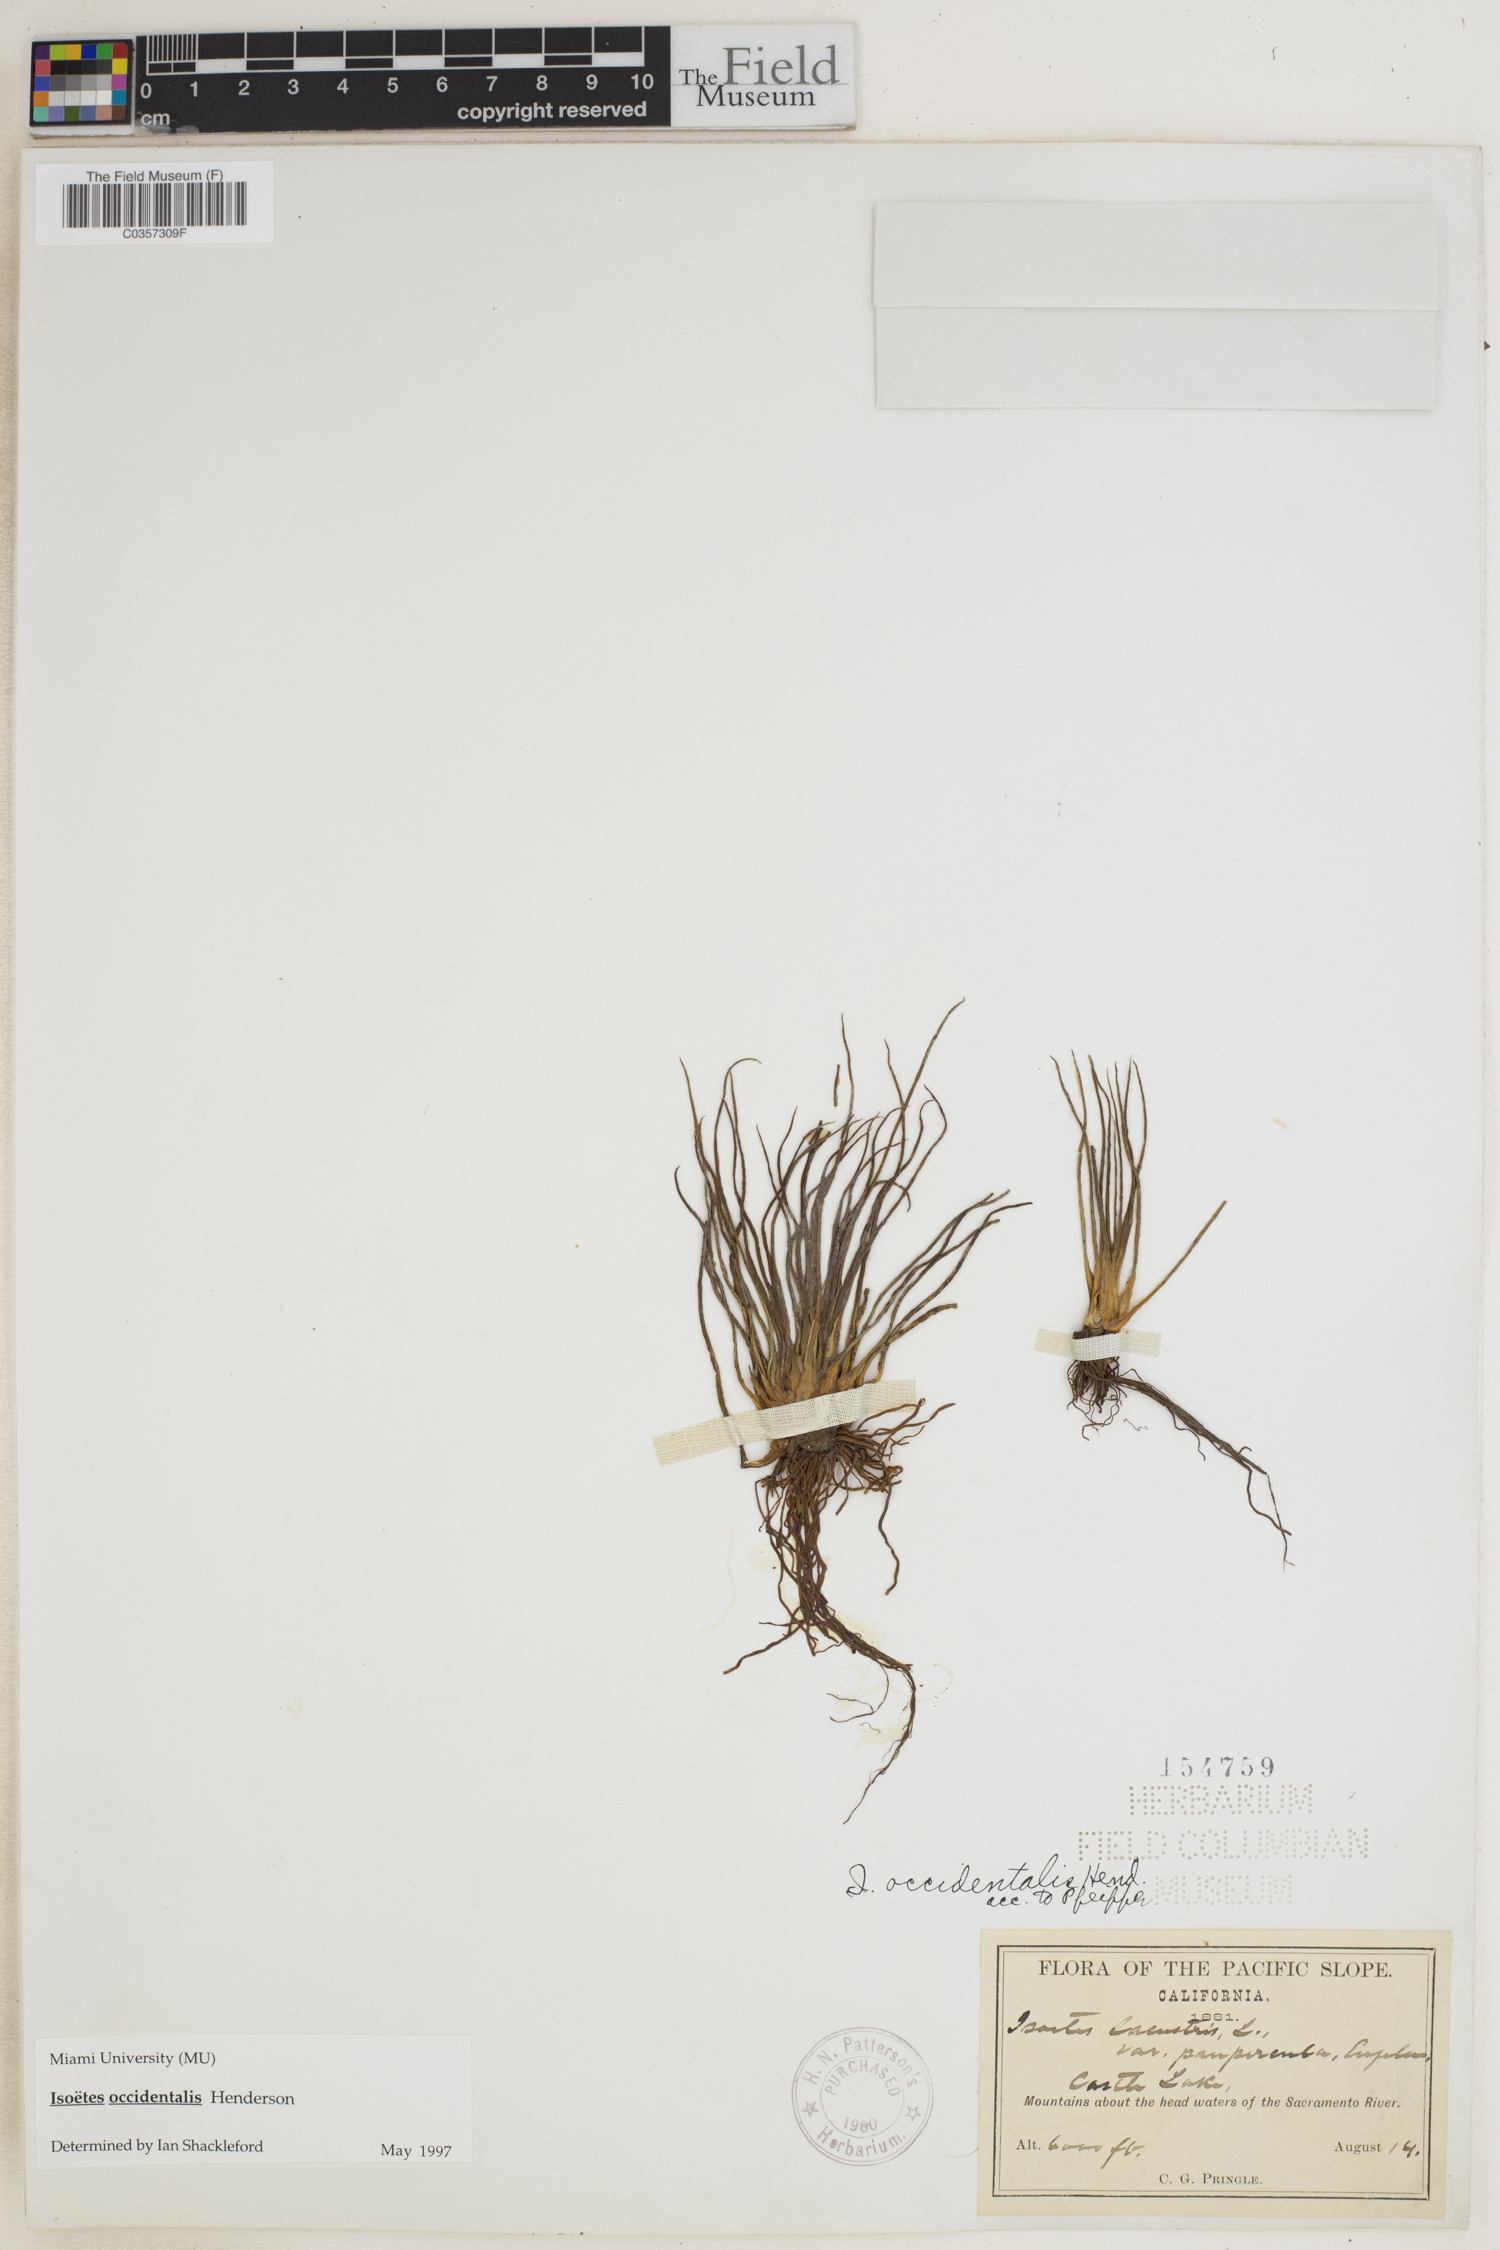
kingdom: Plantae
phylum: Tracheophyta
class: Lycopodiopsida
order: Isoetales
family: Isoetaceae
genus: Isoetes
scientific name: Isoetes occidentalis
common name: Western quillwort
